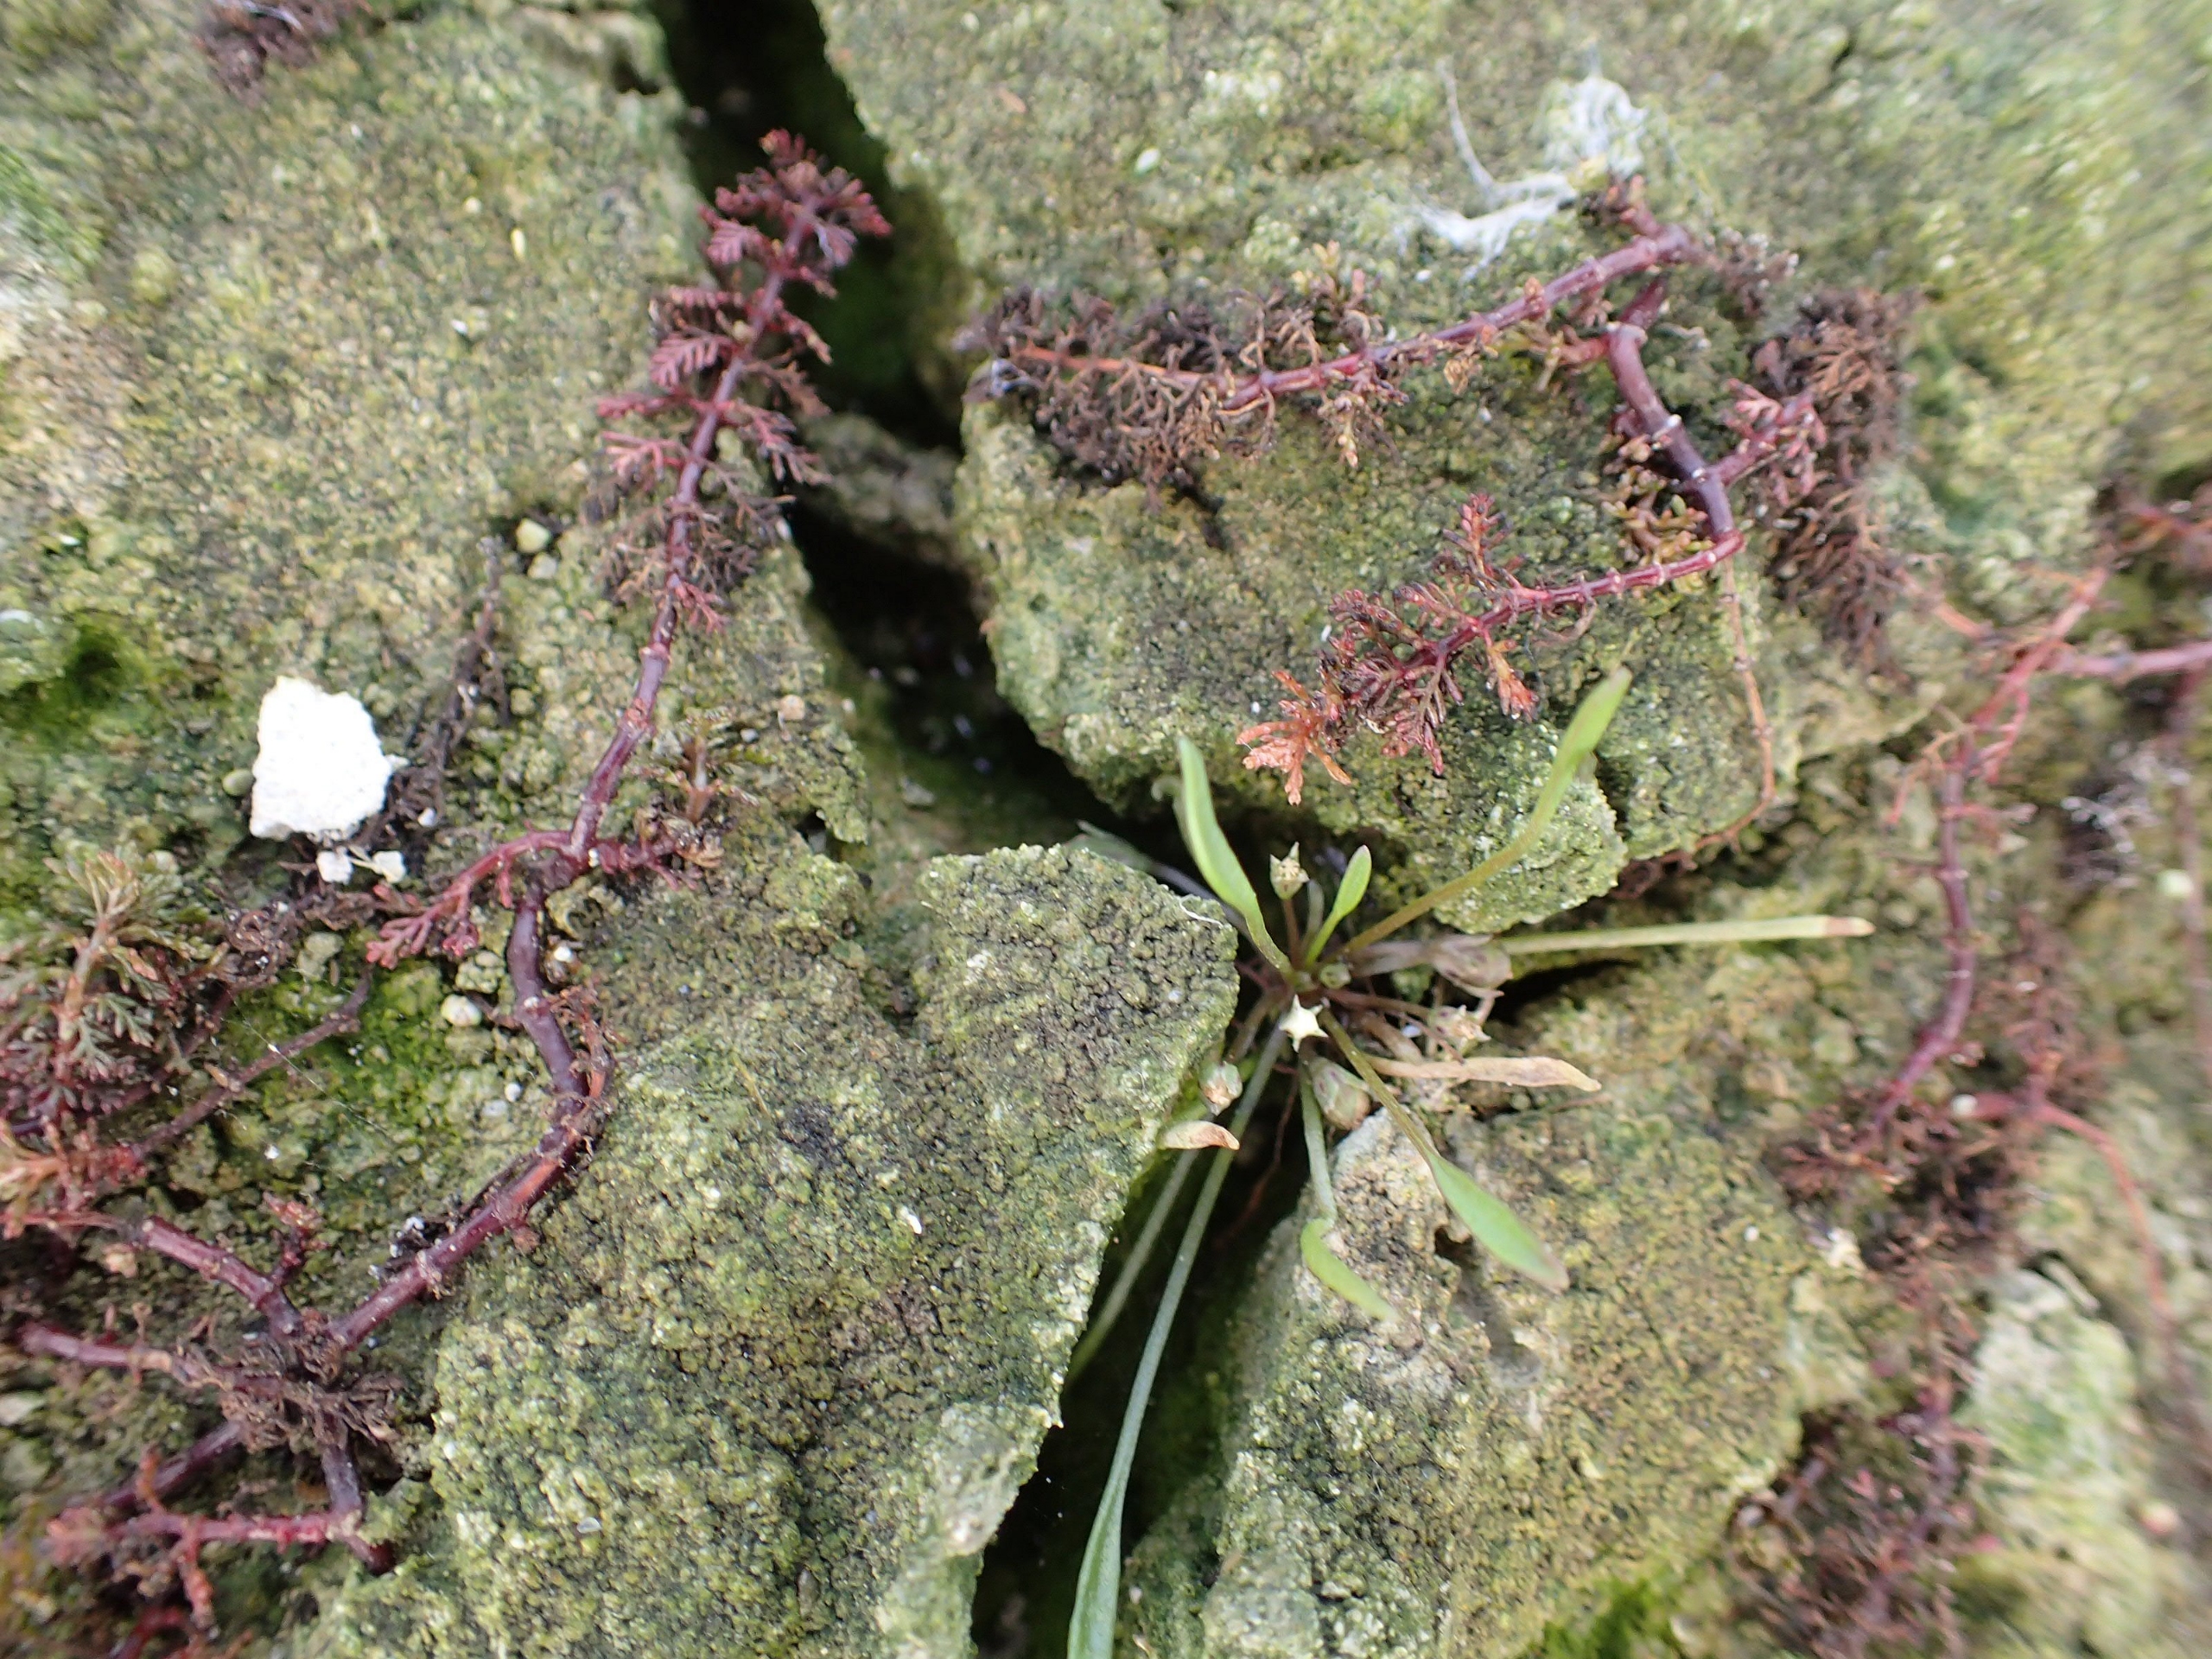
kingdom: Plantae
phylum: Tracheophyta
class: Magnoliopsida
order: Lamiales
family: Scrophulariaceae
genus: Limosella
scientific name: Limosella aquatica
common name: Dyndurt
